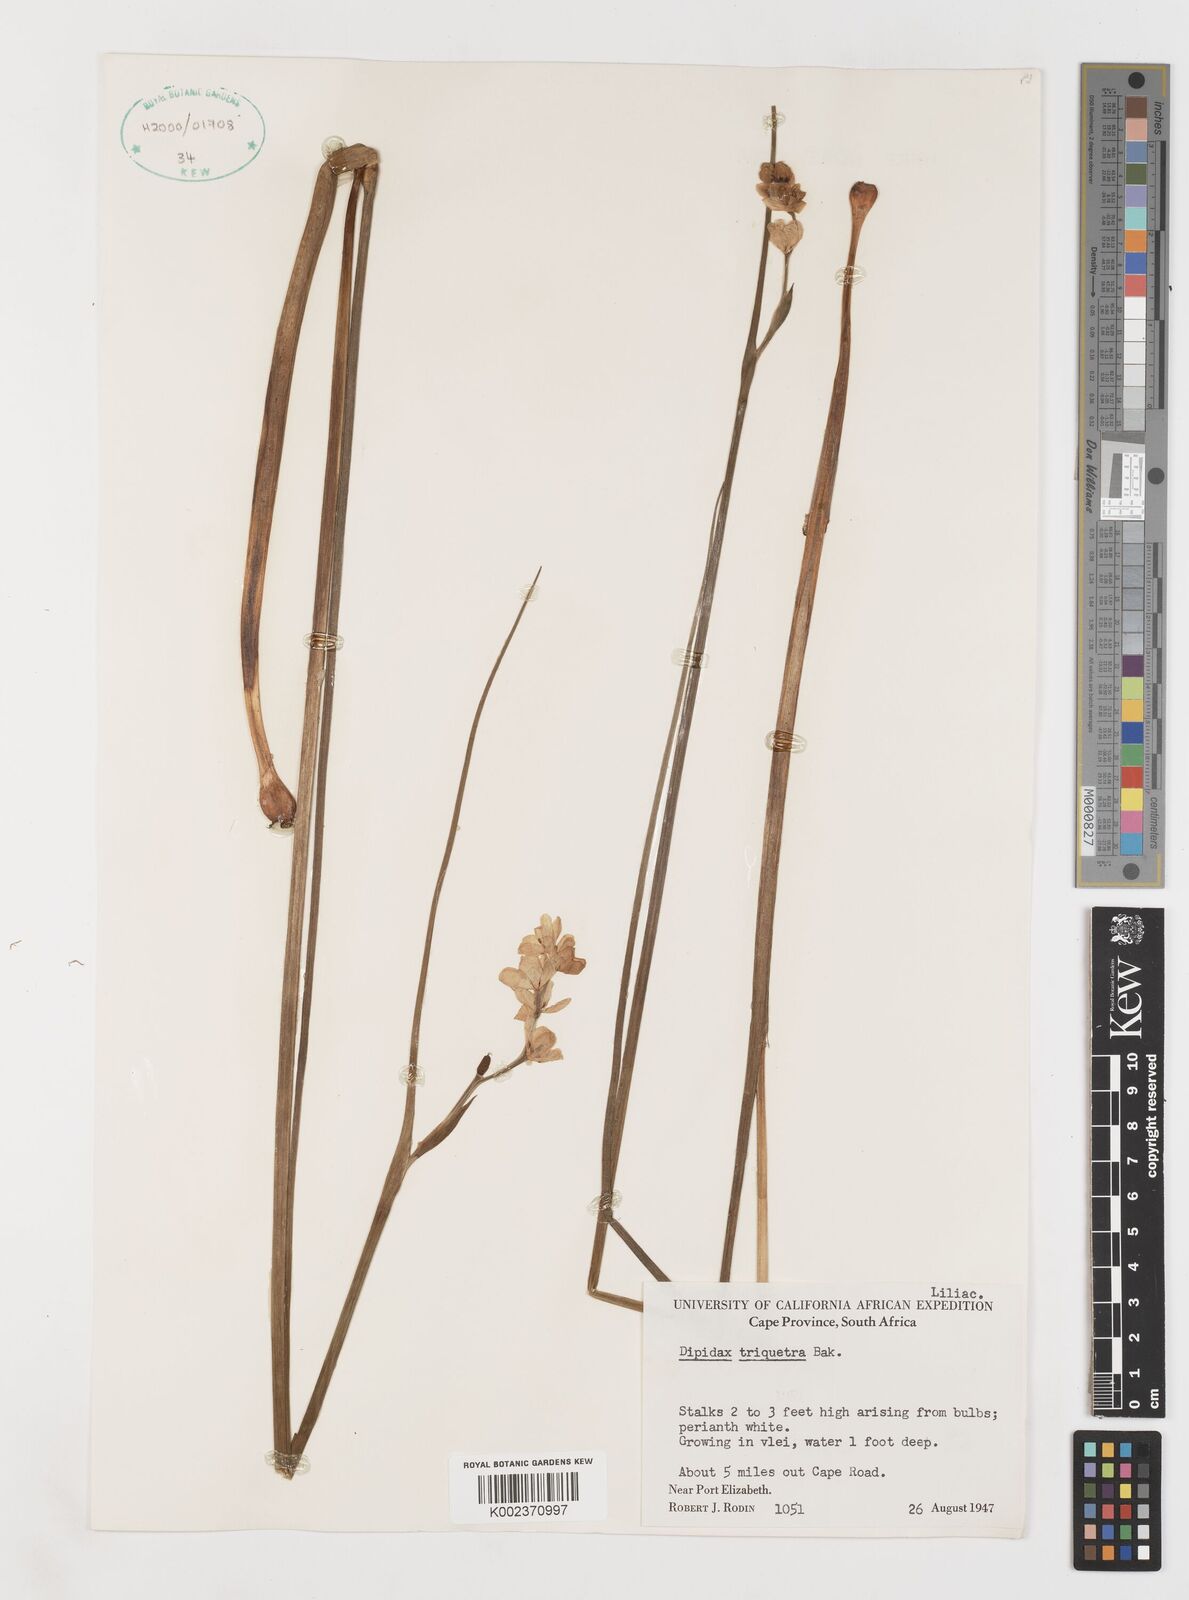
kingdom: Plantae
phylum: Tracheophyta
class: Liliopsida
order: Liliales
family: Colchicaceae
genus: Wurmbea
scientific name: Wurmbea stricta
